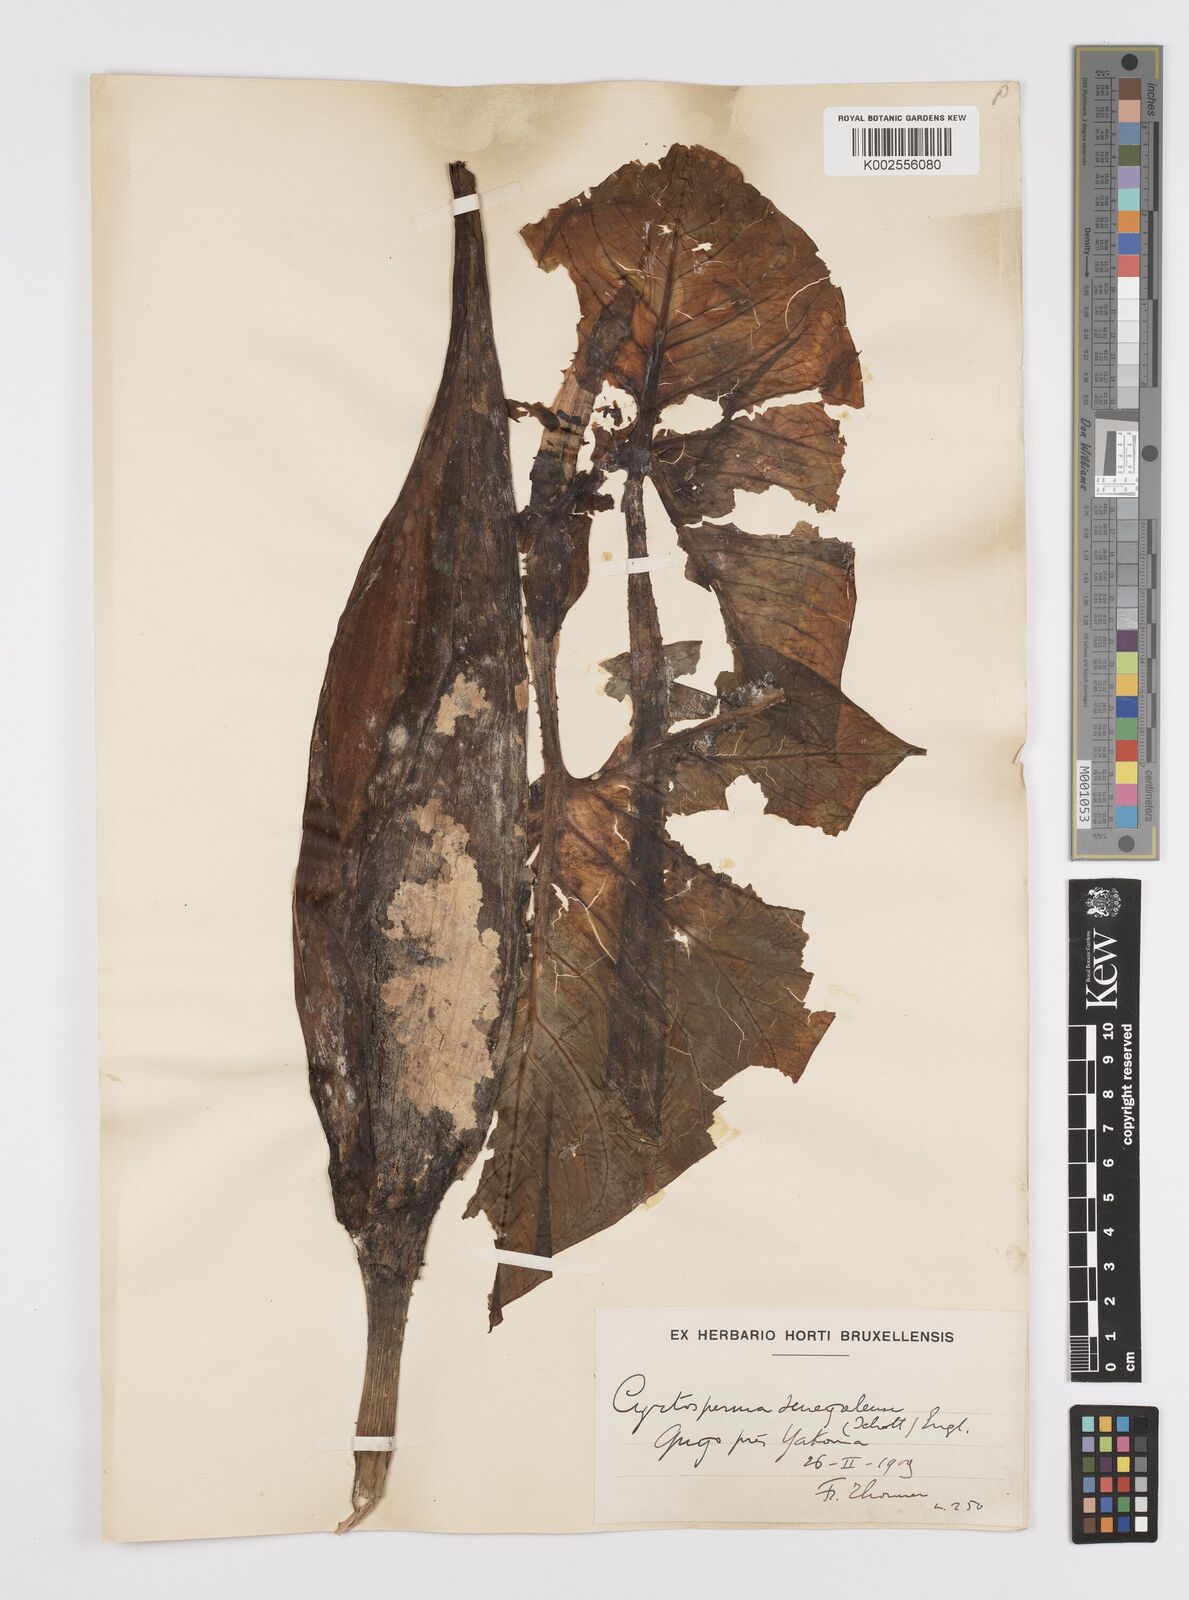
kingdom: Plantae
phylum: Tracheophyta
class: Liliopsida
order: Alismatales
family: Araceae
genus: Lasimorpha
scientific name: Lasimorpha senegalensis
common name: Swamp arum
